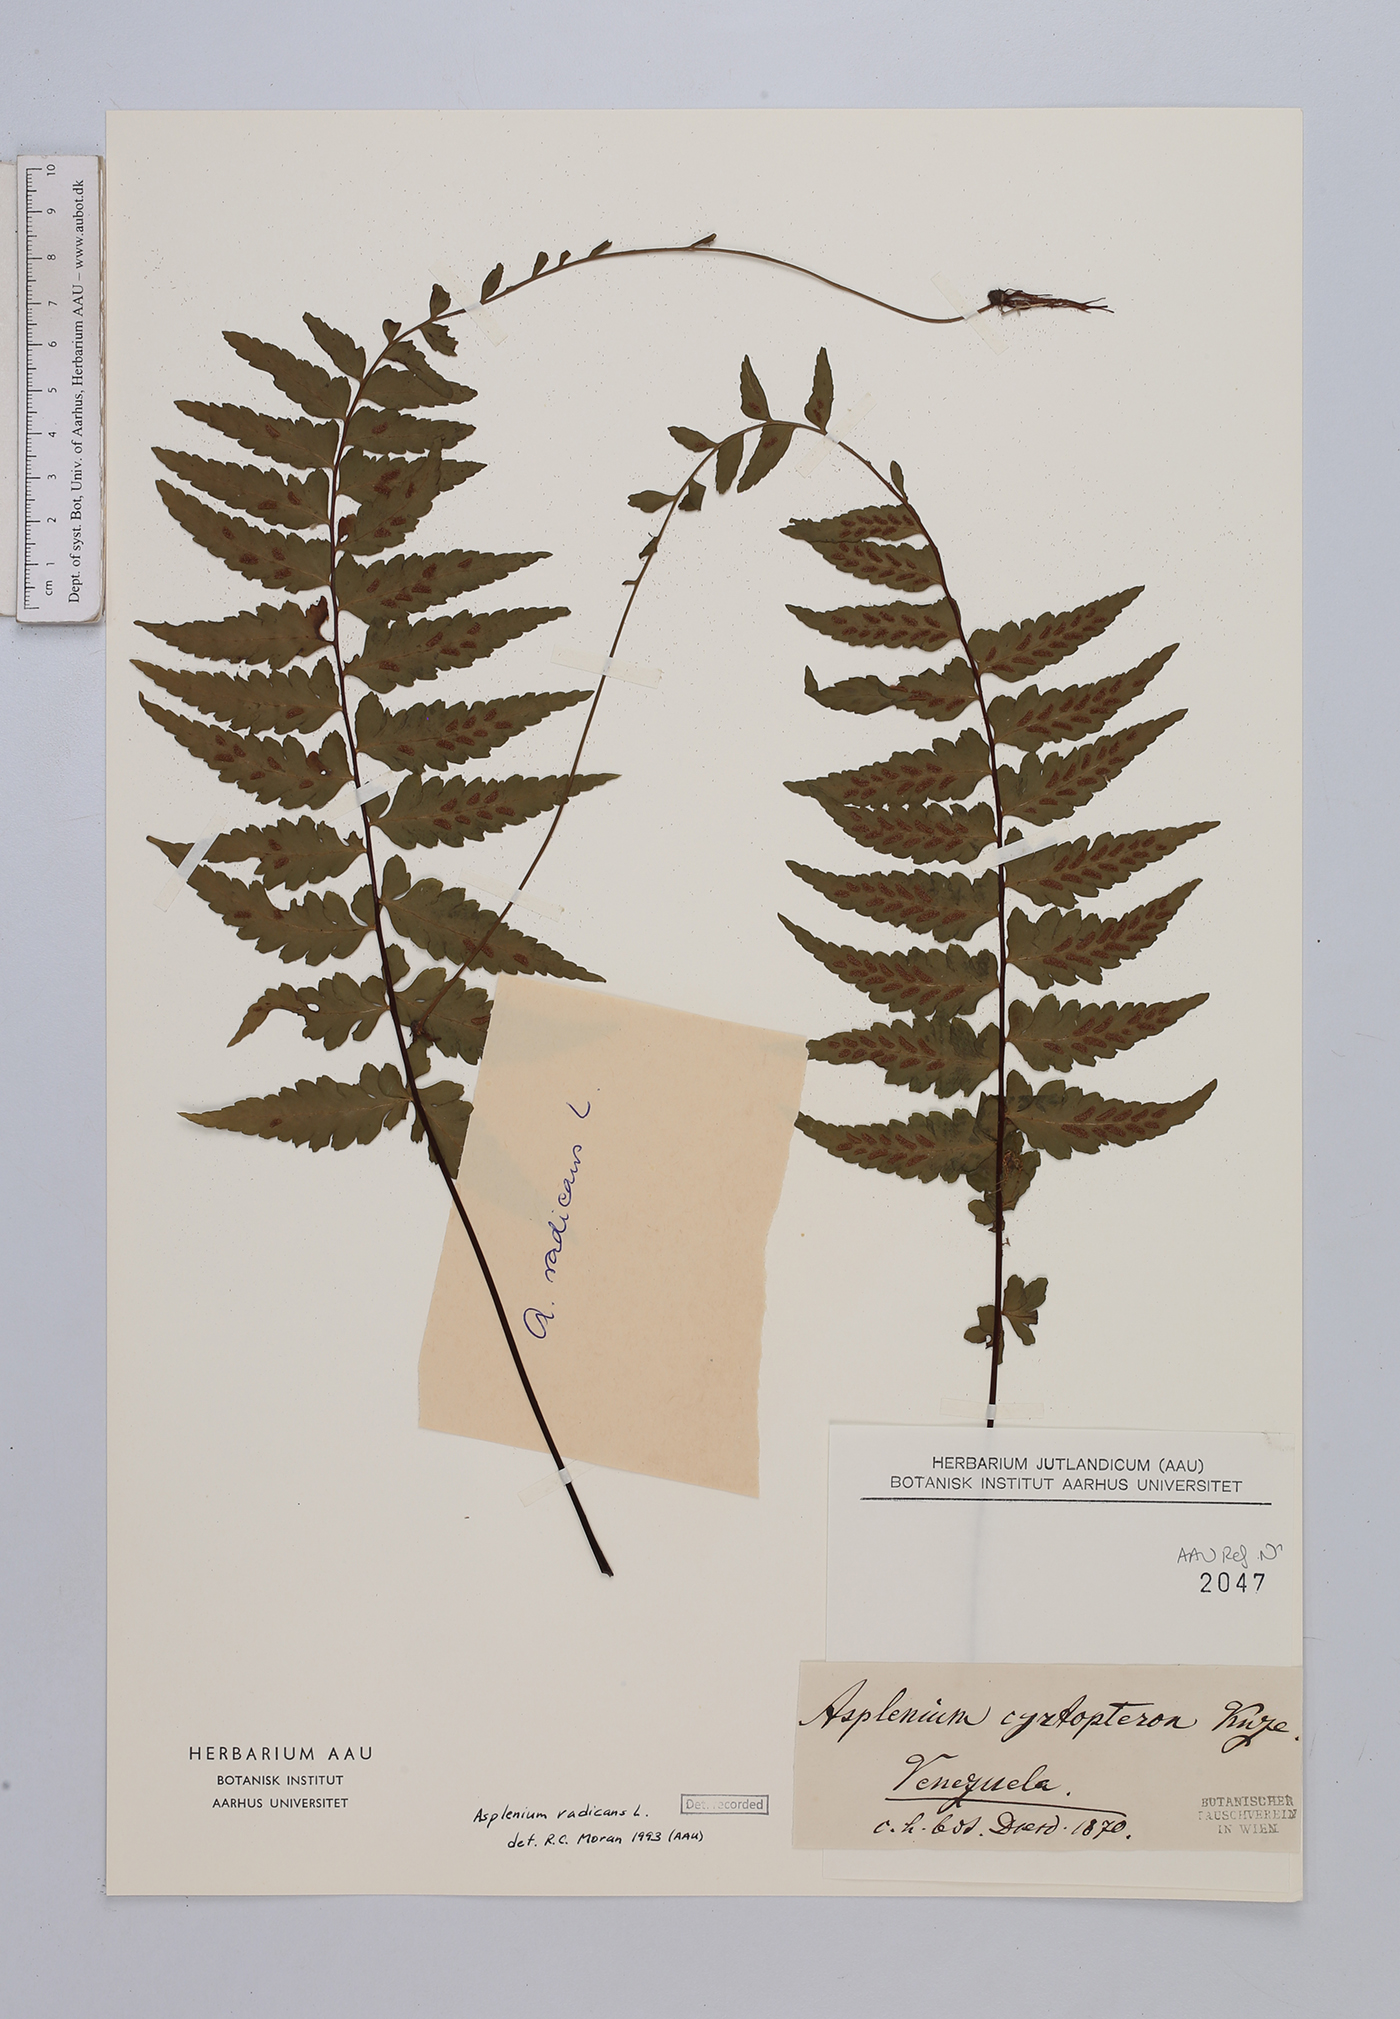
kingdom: Plantae
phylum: Tracheophyta
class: Polypodiopsida
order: Polypodiales
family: Aspleniaceae
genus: Asplenium
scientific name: Asplenium radicans
